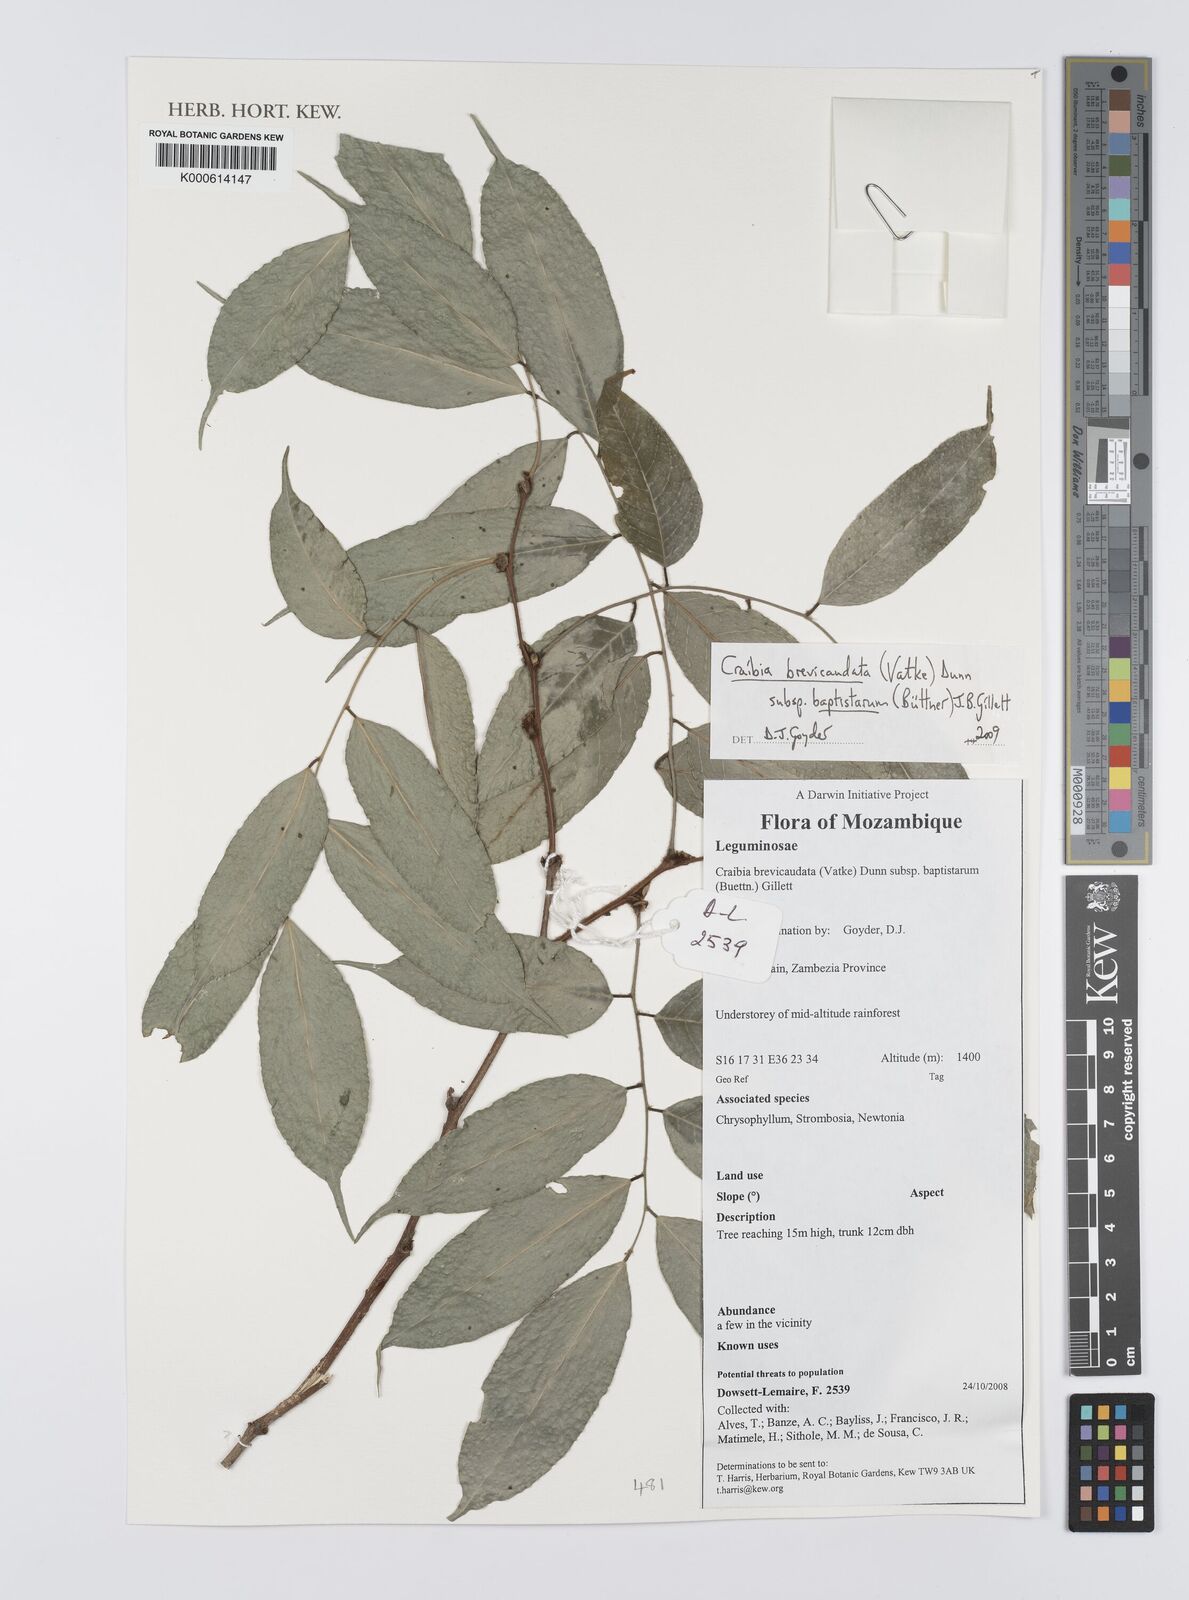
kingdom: Plantae
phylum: Tracheophyta
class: Magnoliopsida
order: Fabales
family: Fabaceae
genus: Craibia
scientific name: Craibia brevicaudata
